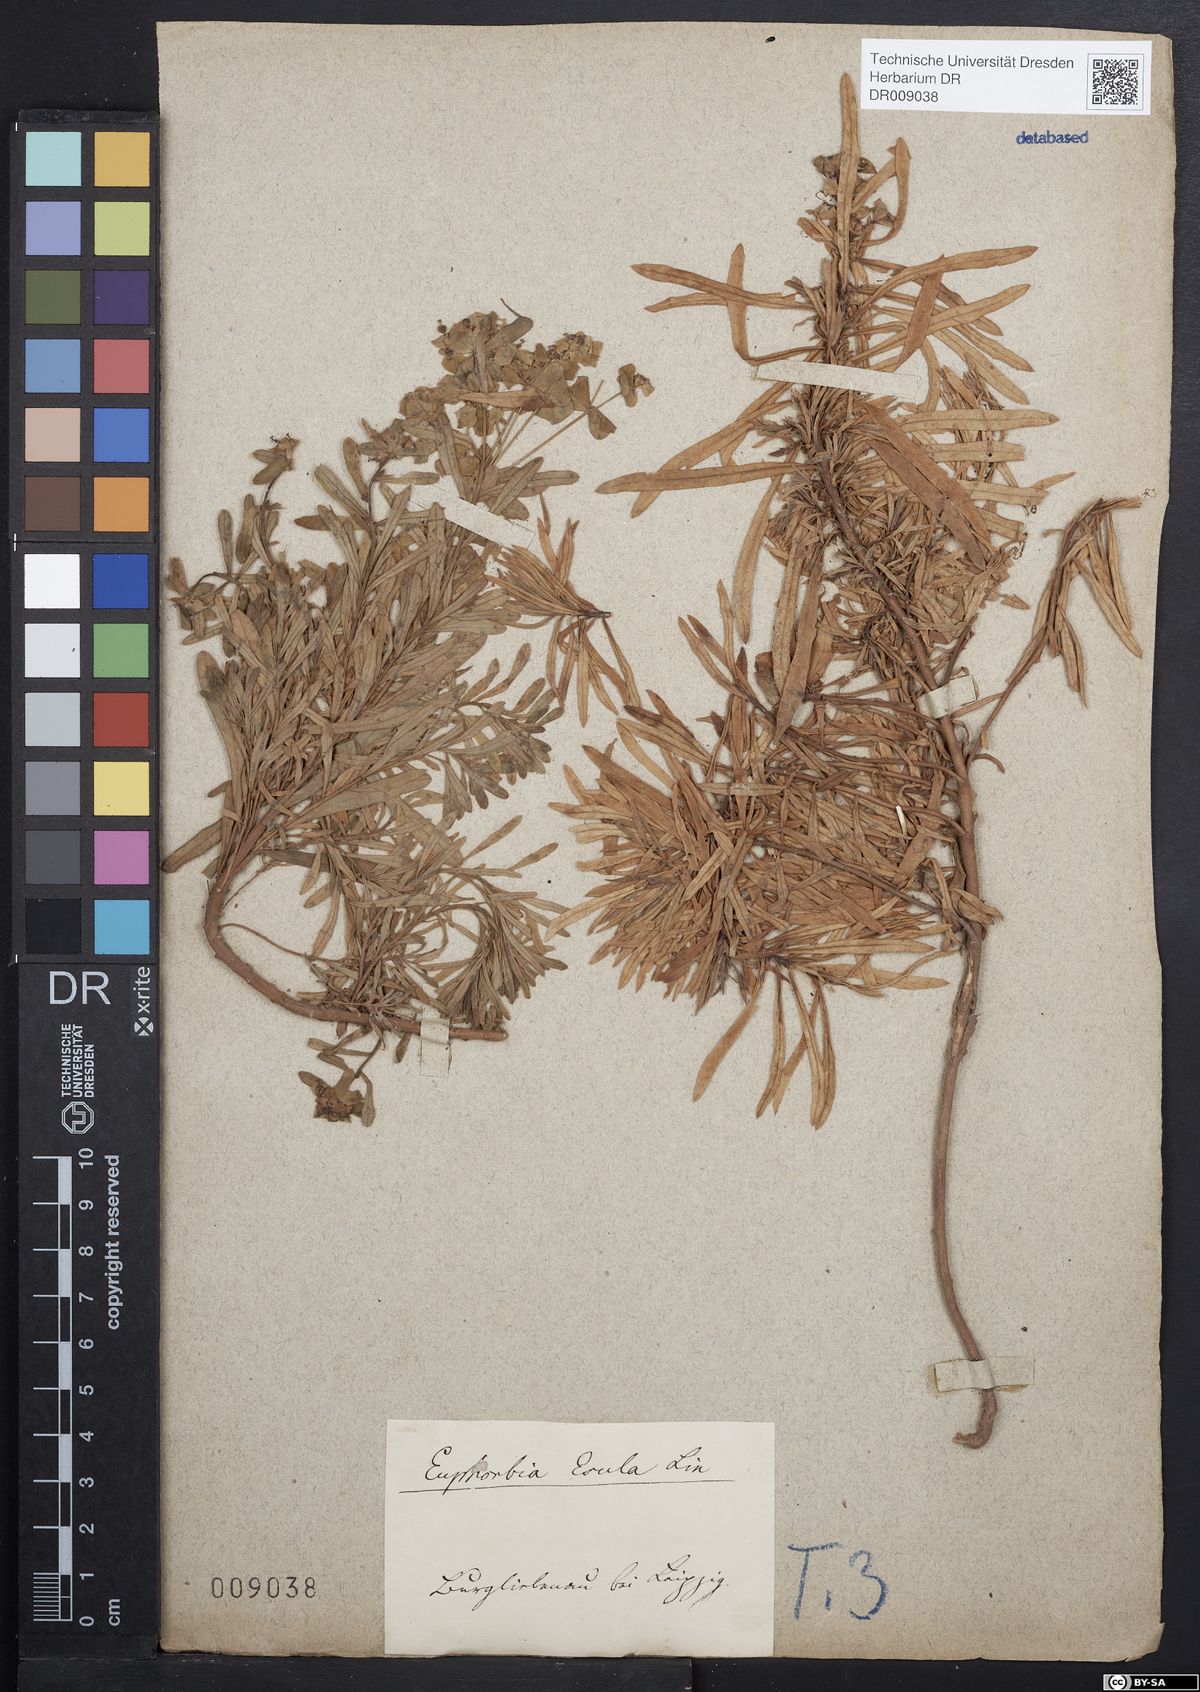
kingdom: Plantae
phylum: Tracheophyta
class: Magnoliopsida
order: Malpighiales
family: Euphorbiaceae
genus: Euphorbia
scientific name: Euphorbia esula
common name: Leafy spurge
